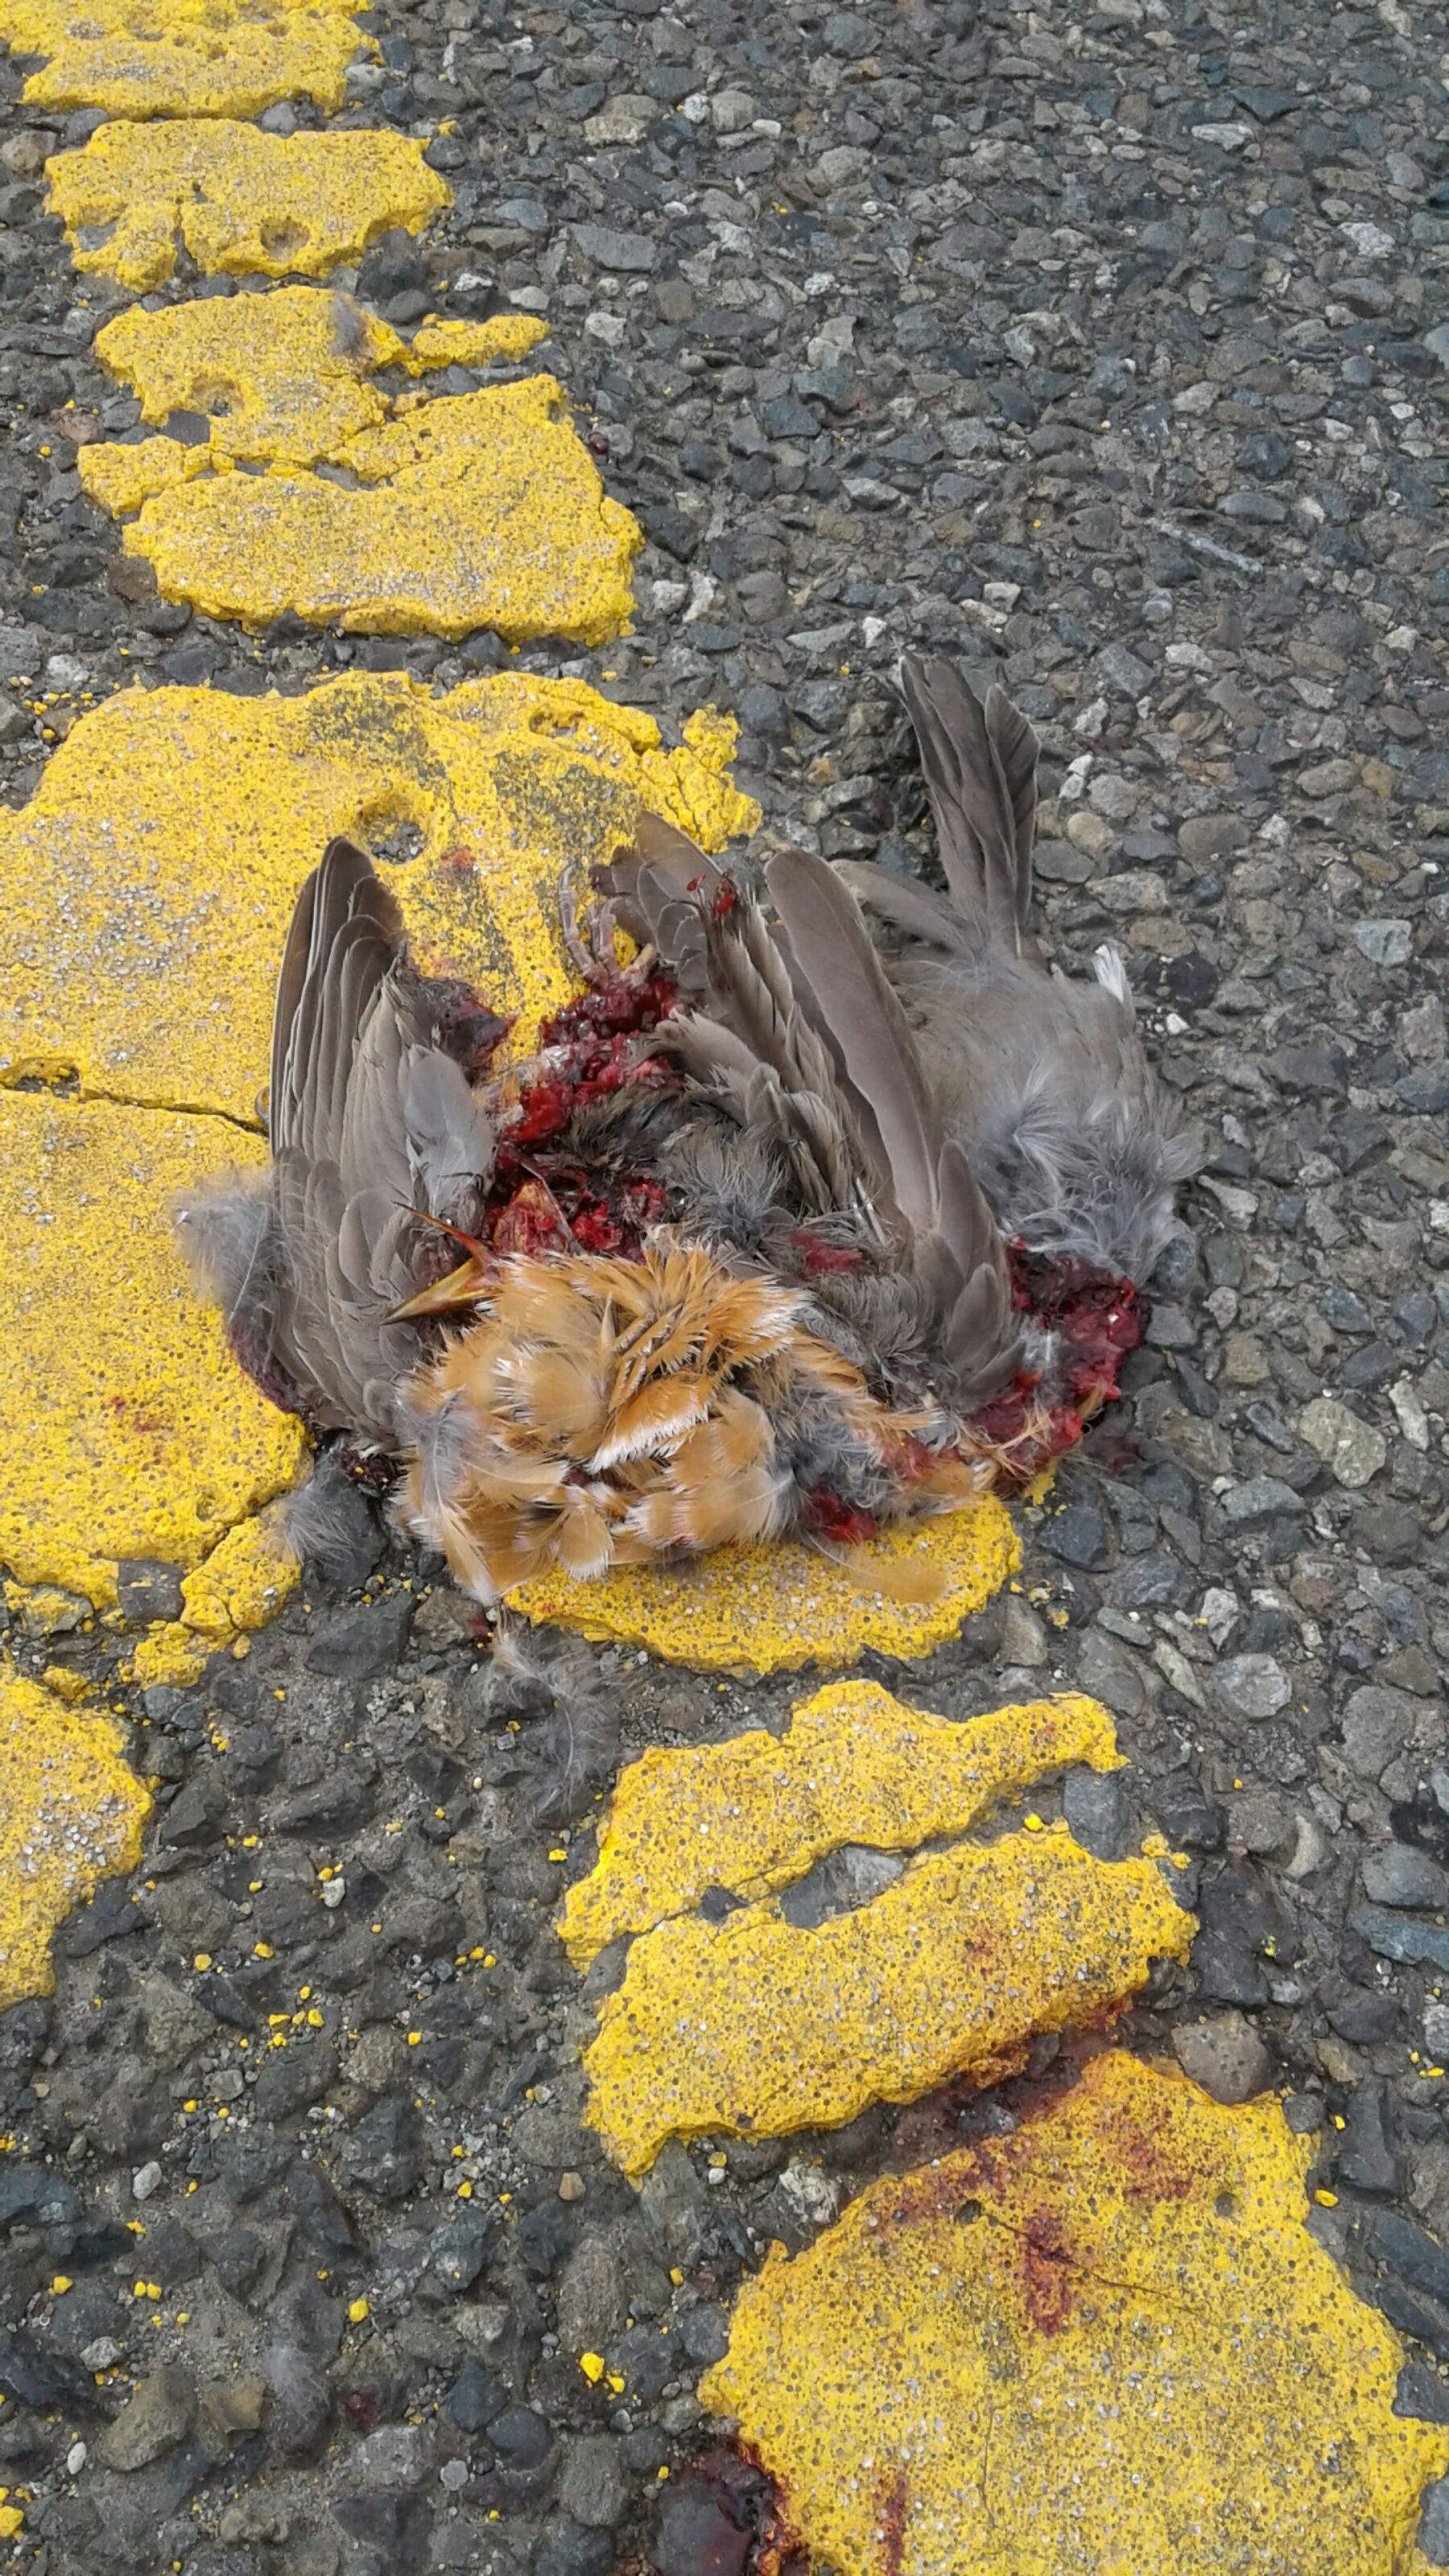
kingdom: Animalia
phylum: Chordata
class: Aves
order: Passeriformes
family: Turdidae
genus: Turdus
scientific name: Turdus migratorius
